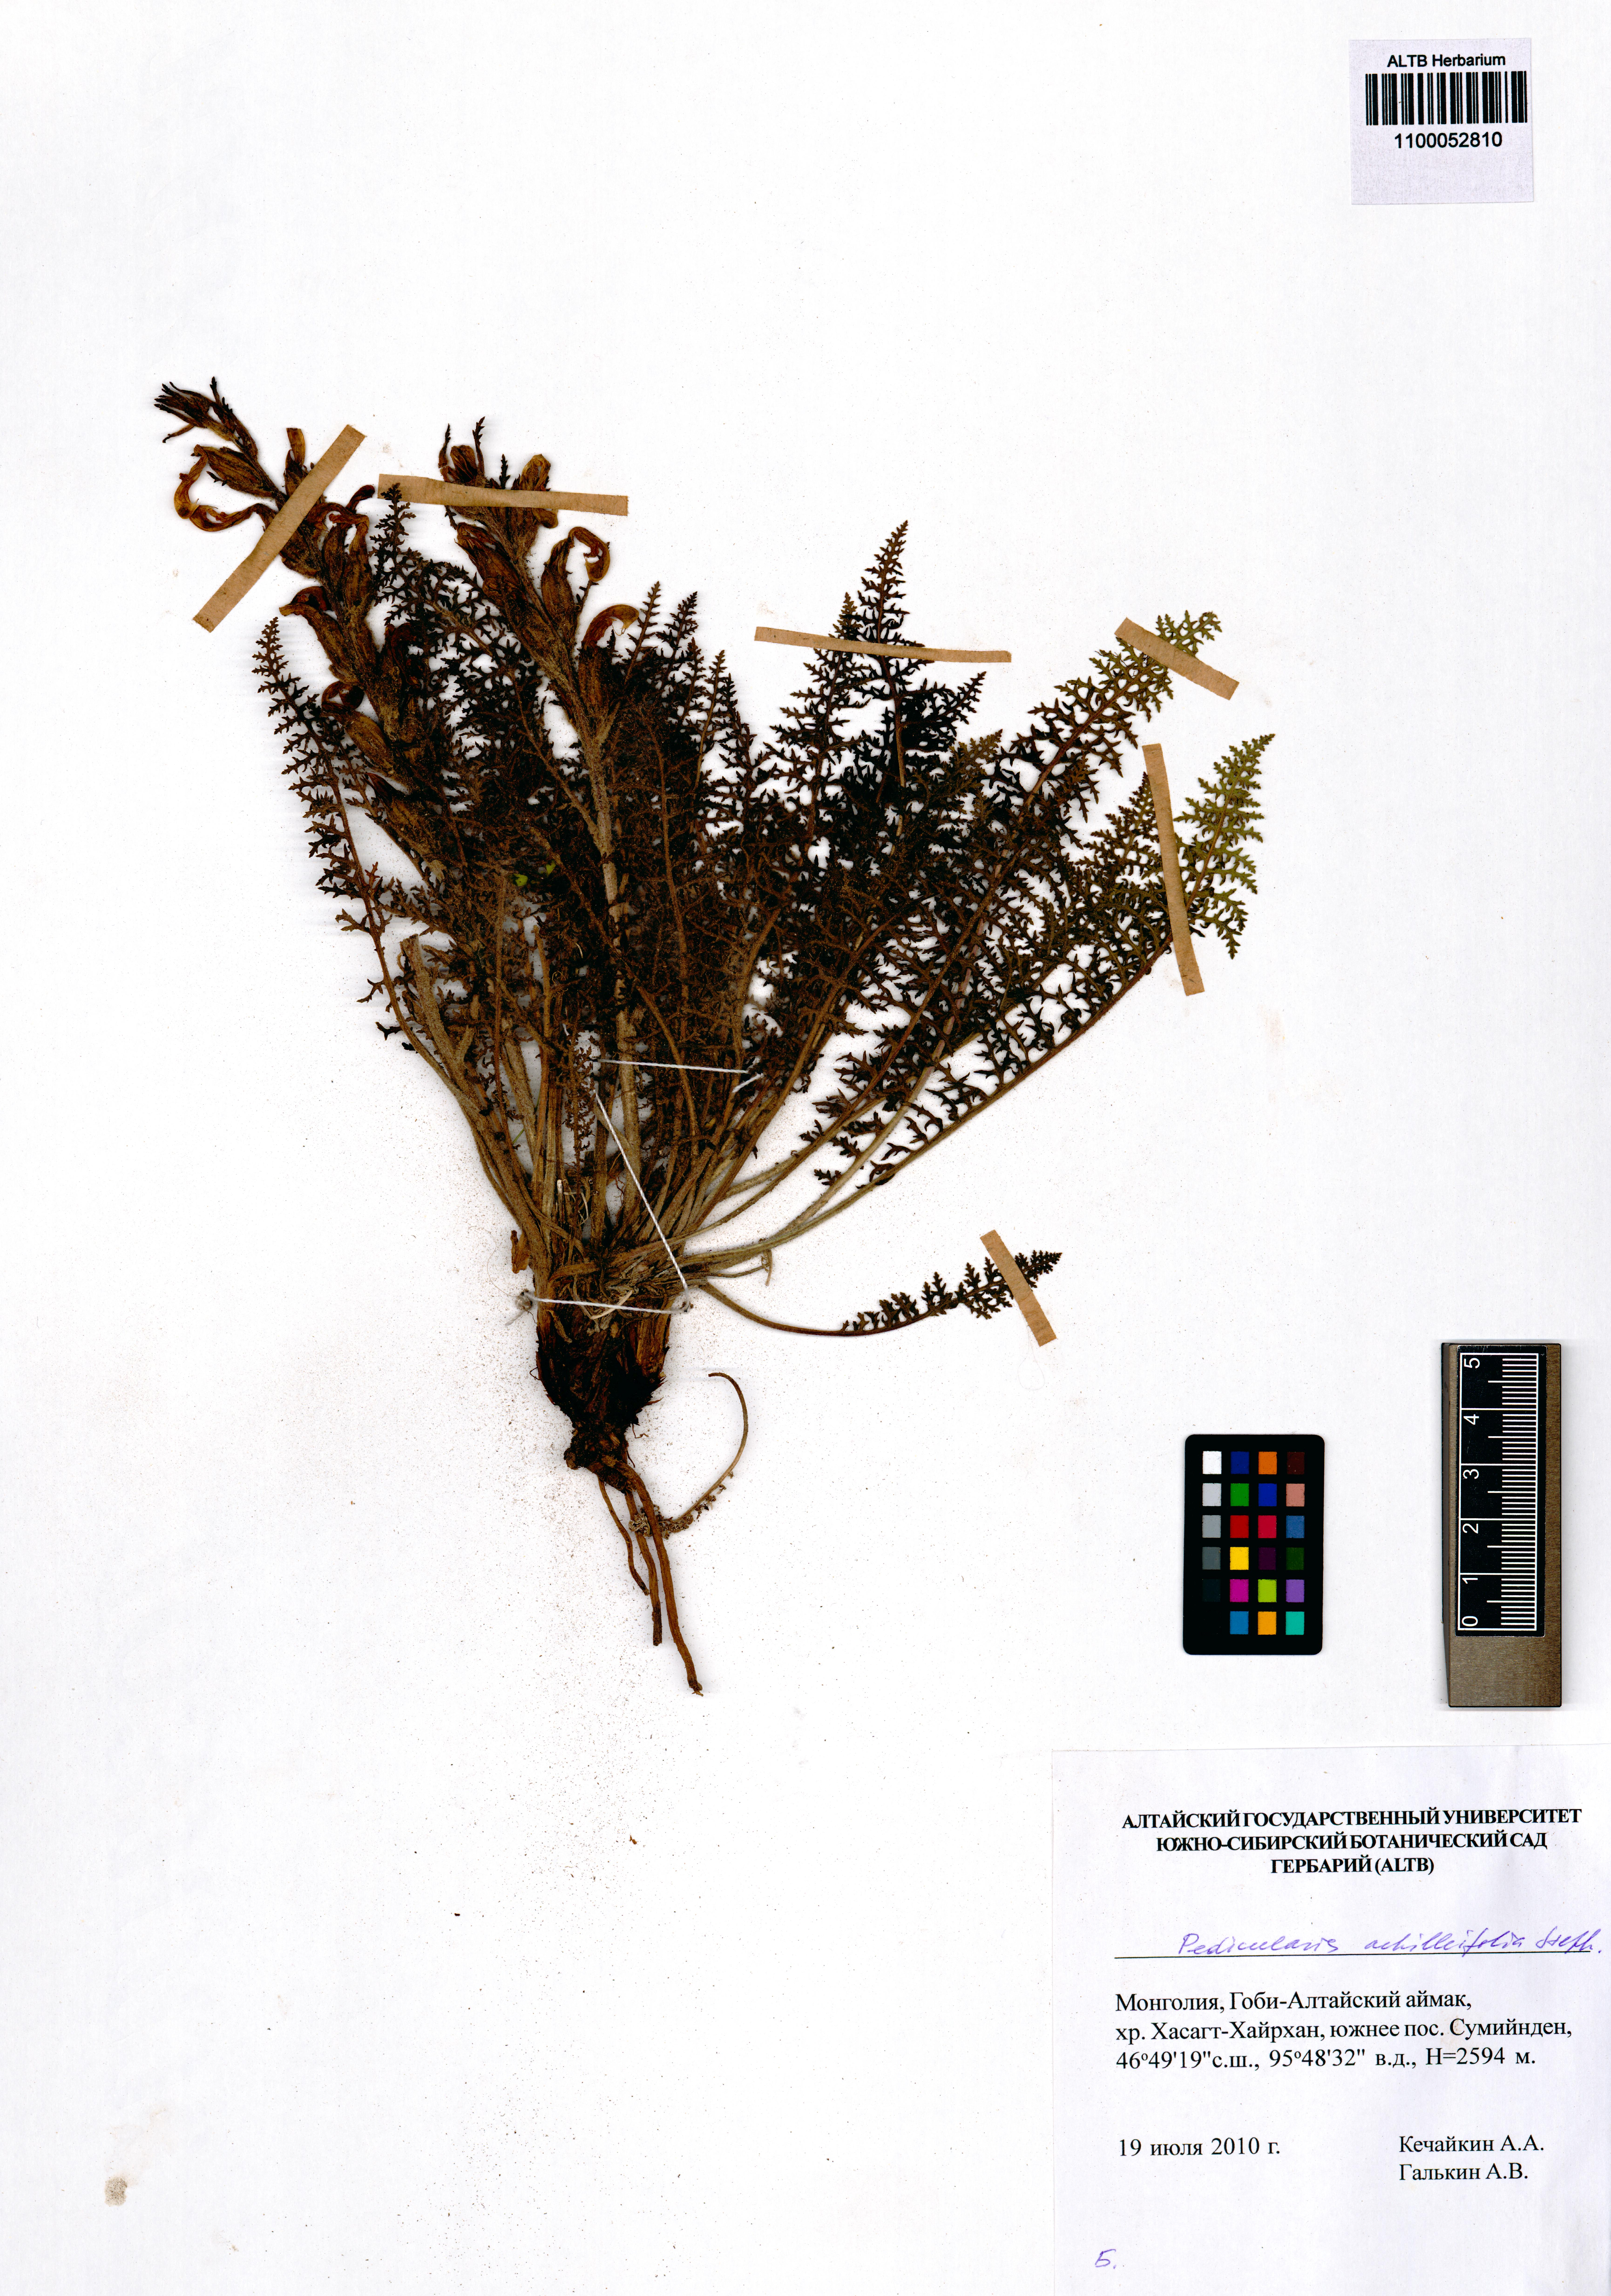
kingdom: Plantae
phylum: Tracheophyta
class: Magnoliopsida
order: Lamiales
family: Orobanchaceae
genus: Pedicularis
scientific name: Pedicularis achilleifolia
